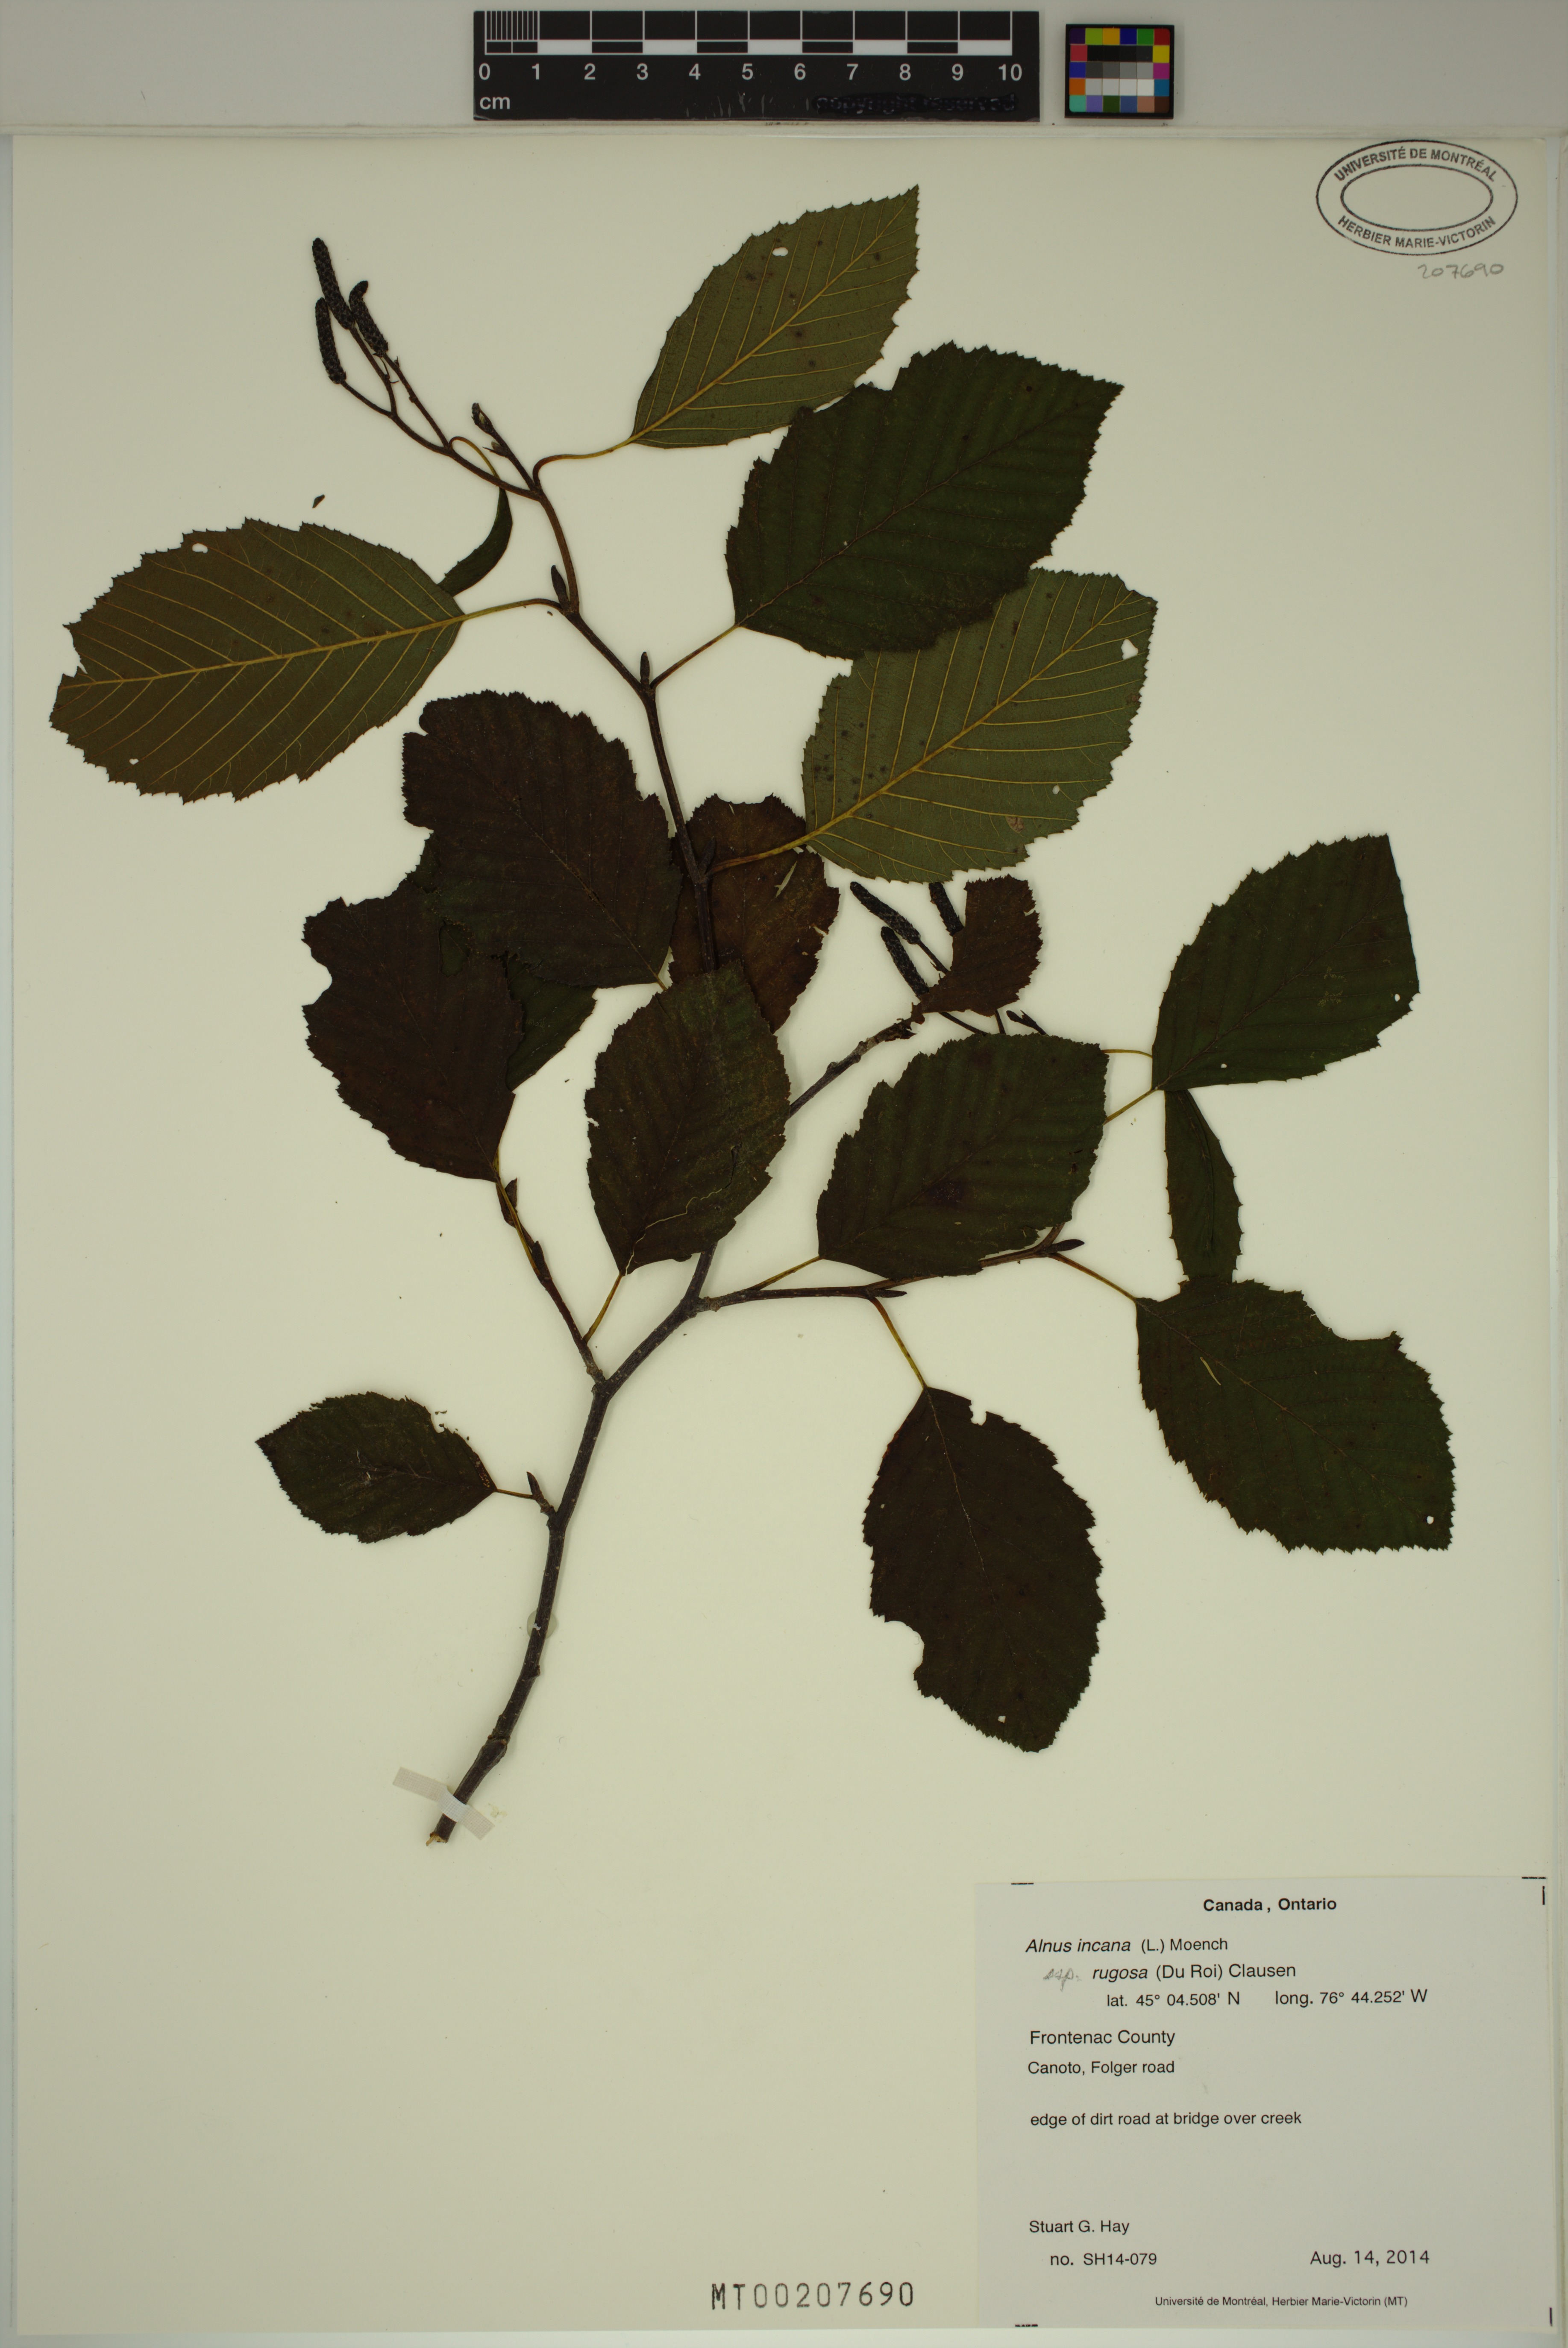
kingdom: Plantae
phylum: Tracheophyta
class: Magnoliopsida
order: Fagales
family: Betulaceae
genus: Alnus
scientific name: Alnus incana
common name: Grey alder
